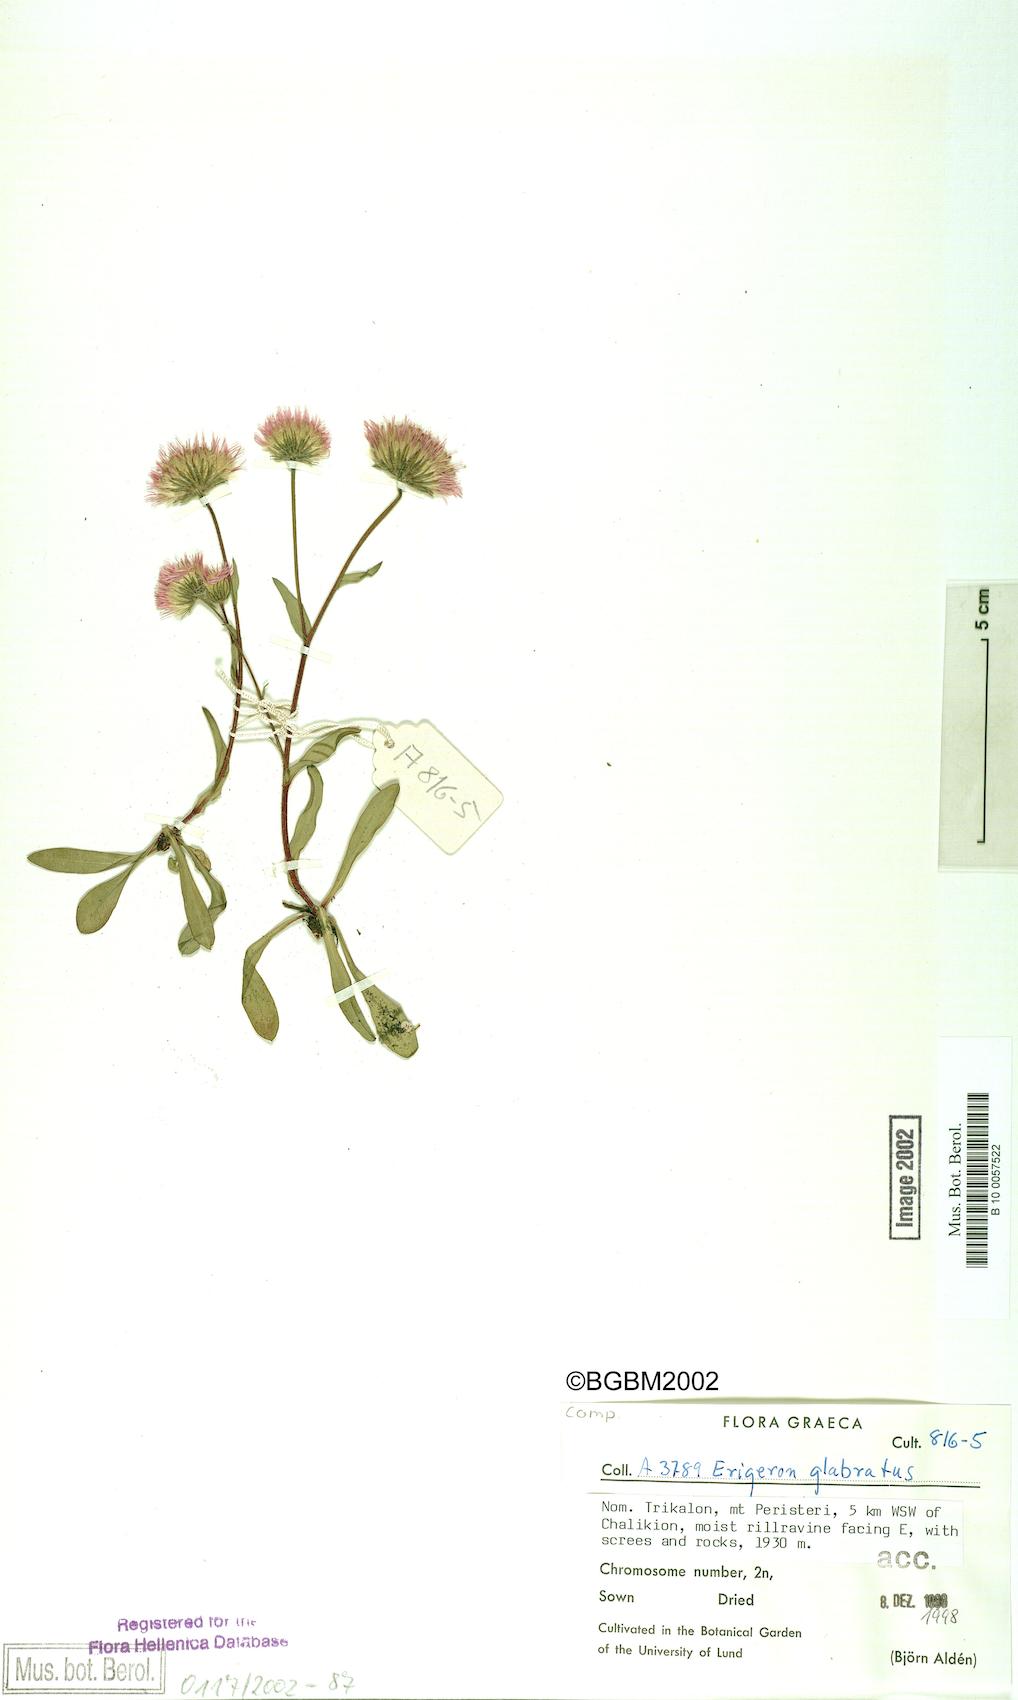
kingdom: Plantae
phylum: Tracheophyta
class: Magnoliopsida
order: Asterales
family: Asteraceae
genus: Erigeron
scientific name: Erigeron glabratus
